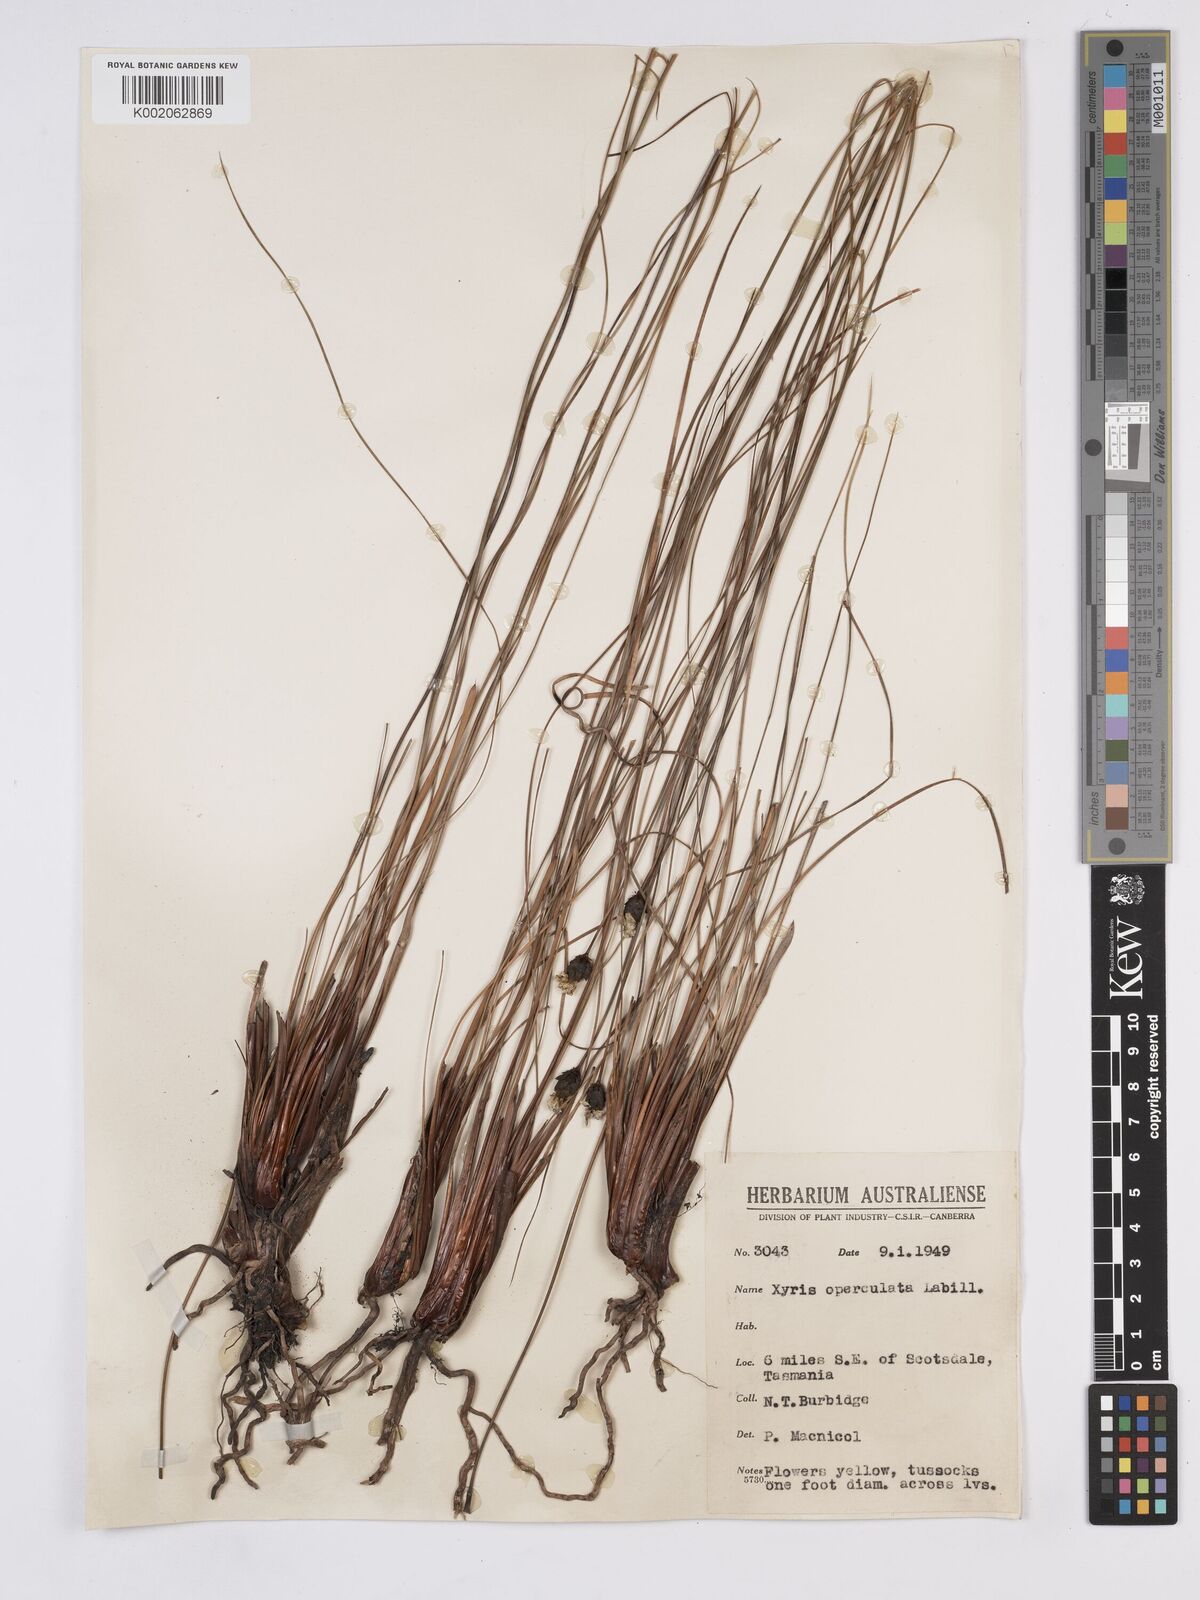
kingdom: Plantae
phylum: Tracheophyta
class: Liliopsida
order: Poales
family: Xyridaceae
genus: Xyris
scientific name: Xyris operculata
